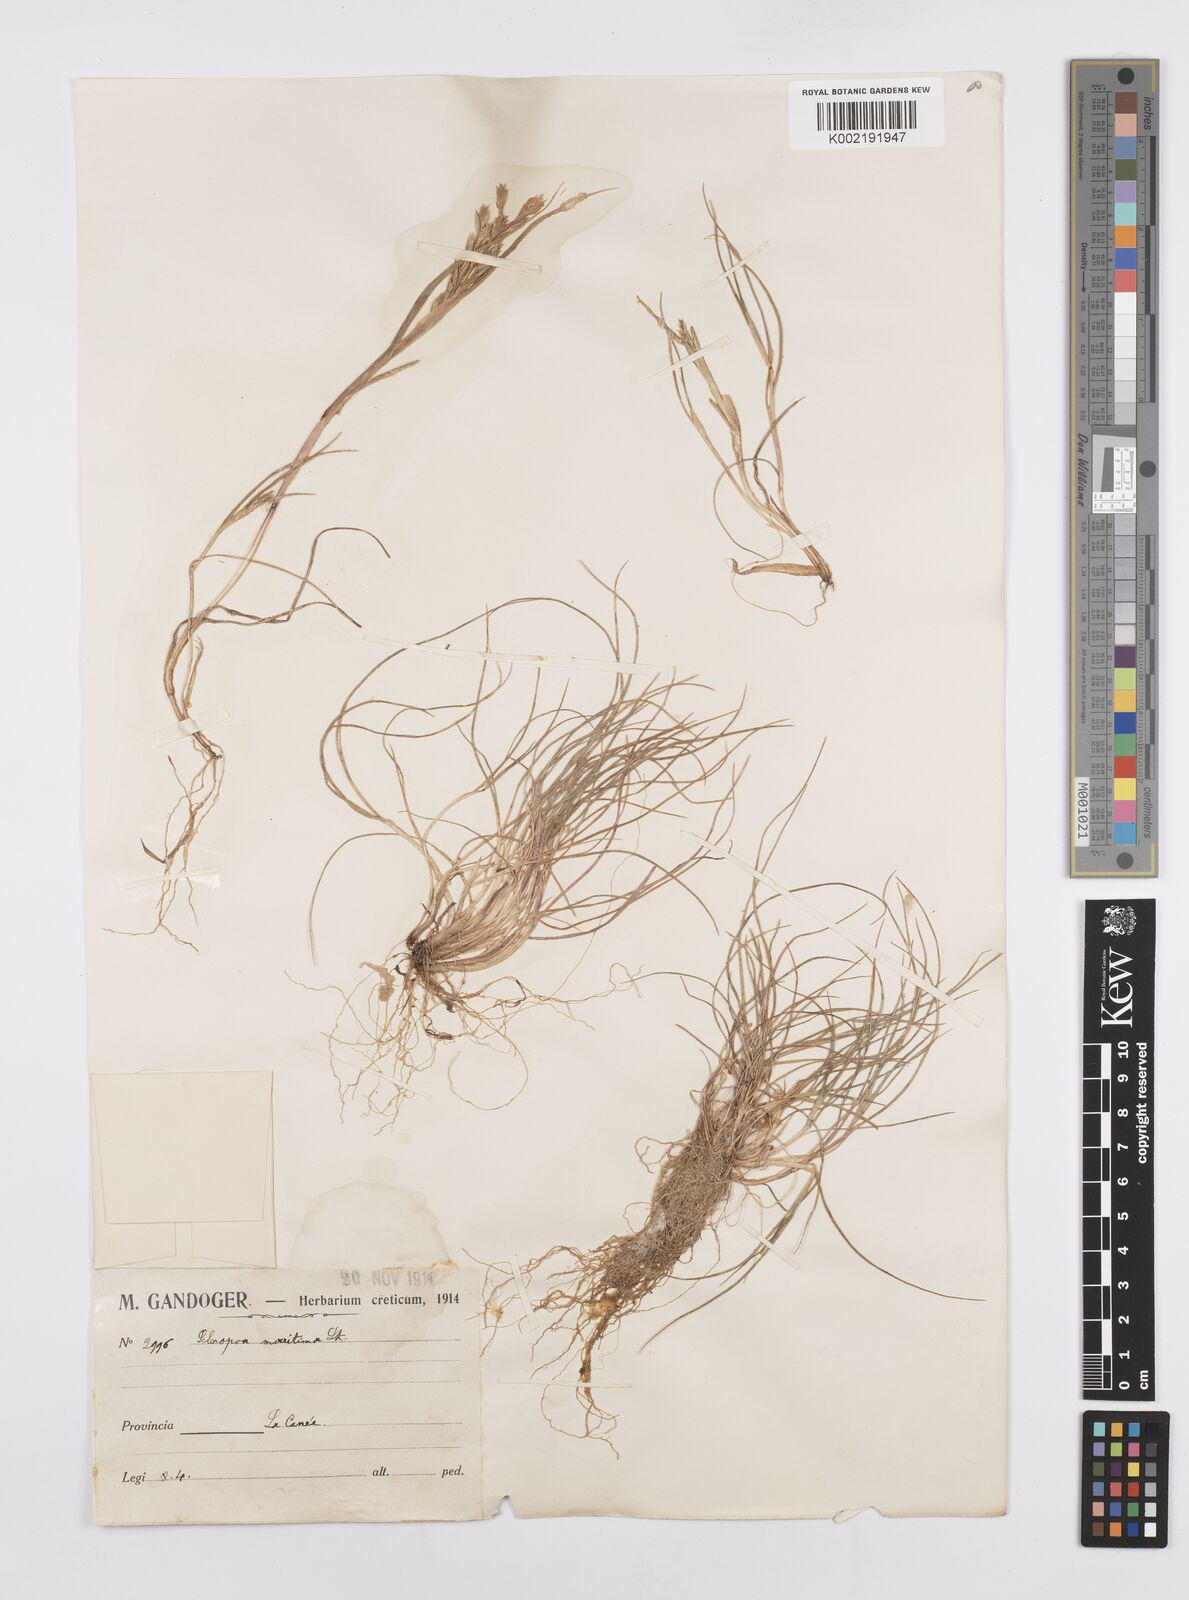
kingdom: Plantae
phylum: Tracheophyta
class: Liliopsida
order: Poales
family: Poaceae
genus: Cutandia
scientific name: Cutandia maritima
